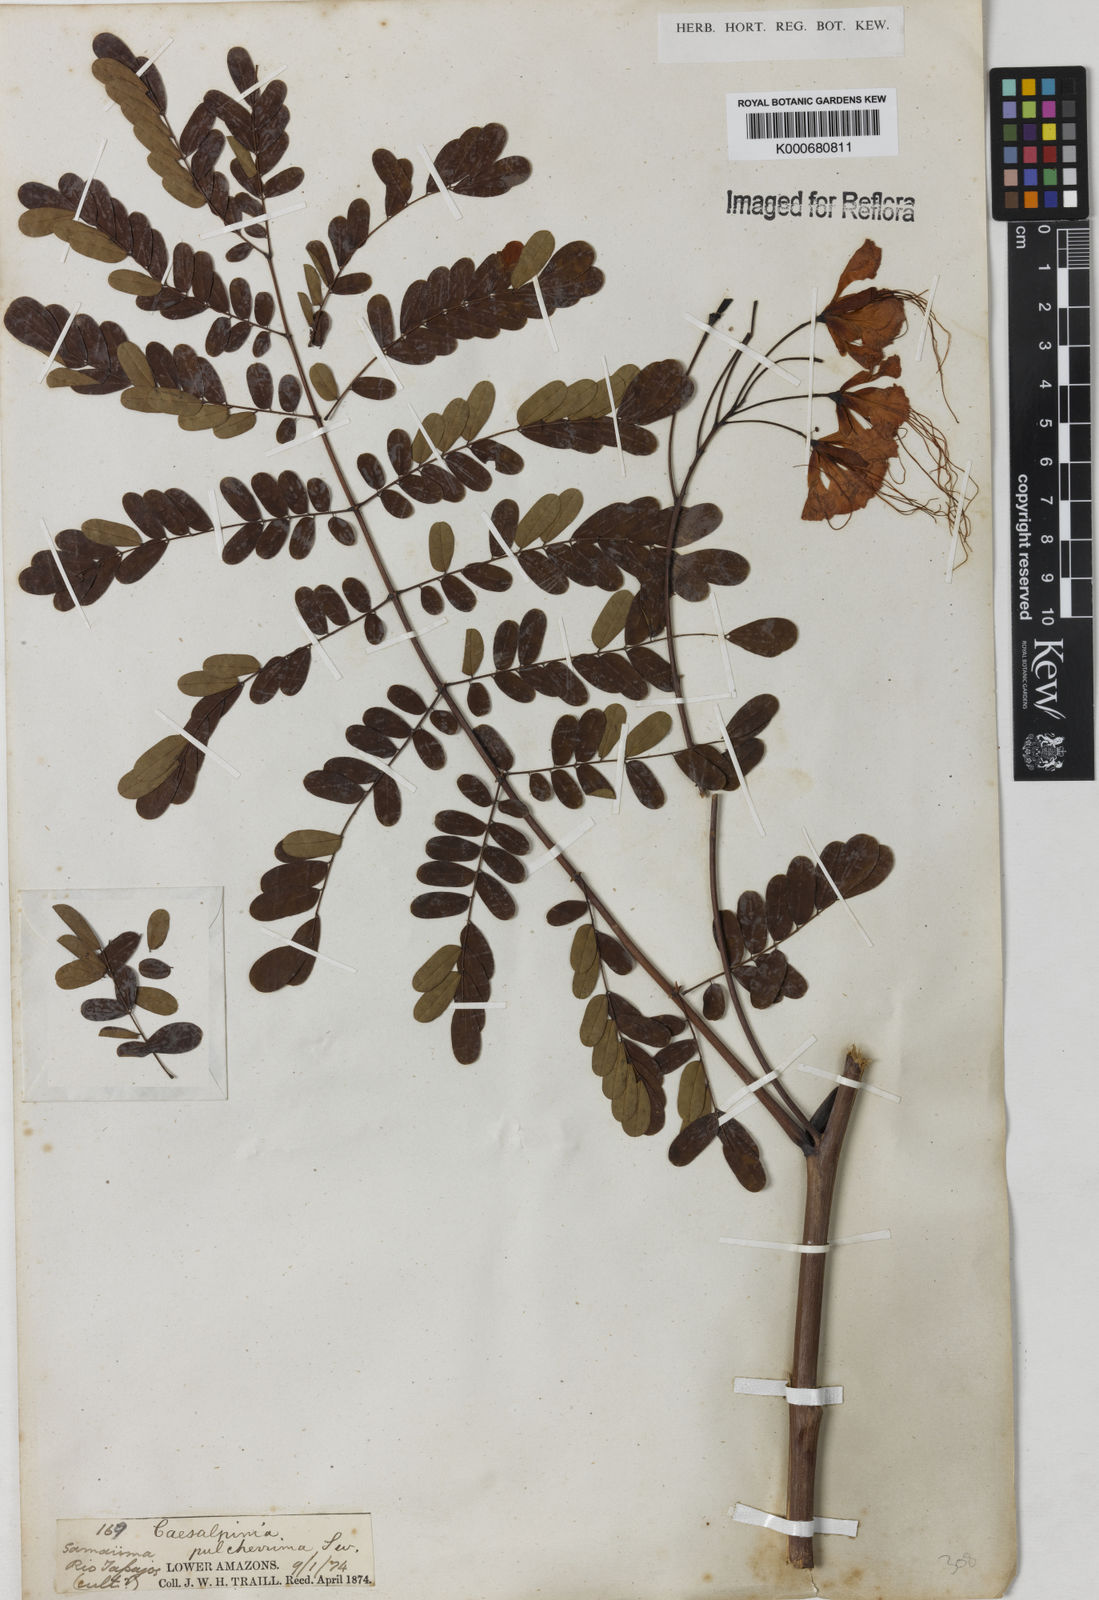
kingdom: Plantae
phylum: Tracheophyta
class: Magnoliopsida
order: Fabales
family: Fabaceae
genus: Caesalpinia
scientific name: Caesalpinia pulcherrima
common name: Pride-of-barbados
